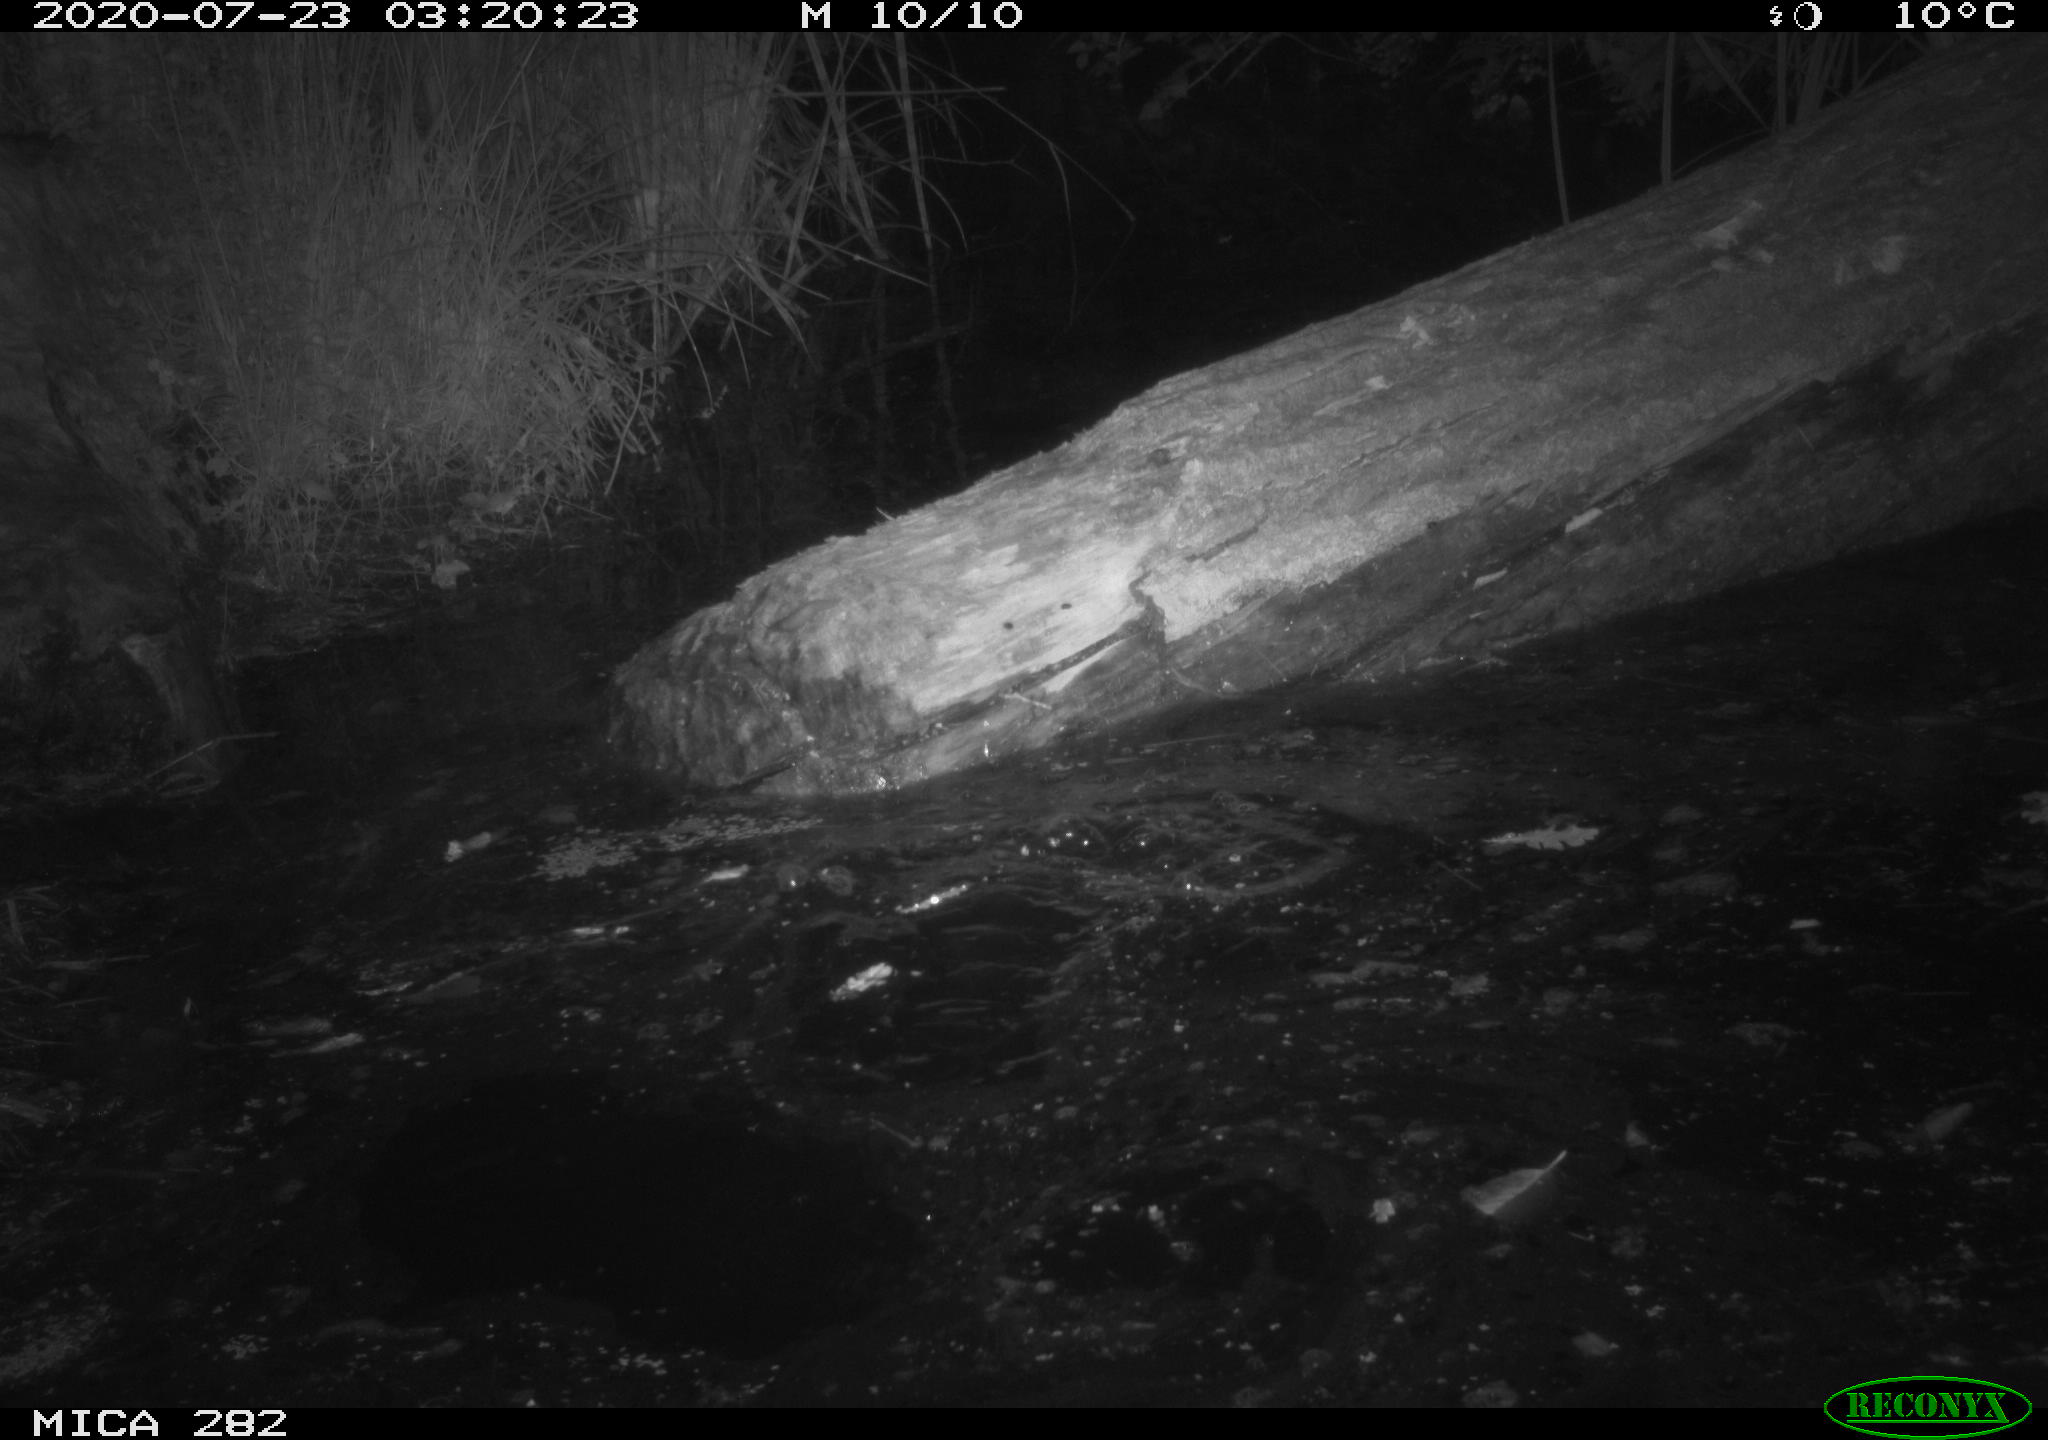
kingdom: Animalia
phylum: Chordata
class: Mammalia
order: Rodentia
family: Castoridae
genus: Castor
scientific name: Castor fiber
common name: Eurasian beaver
